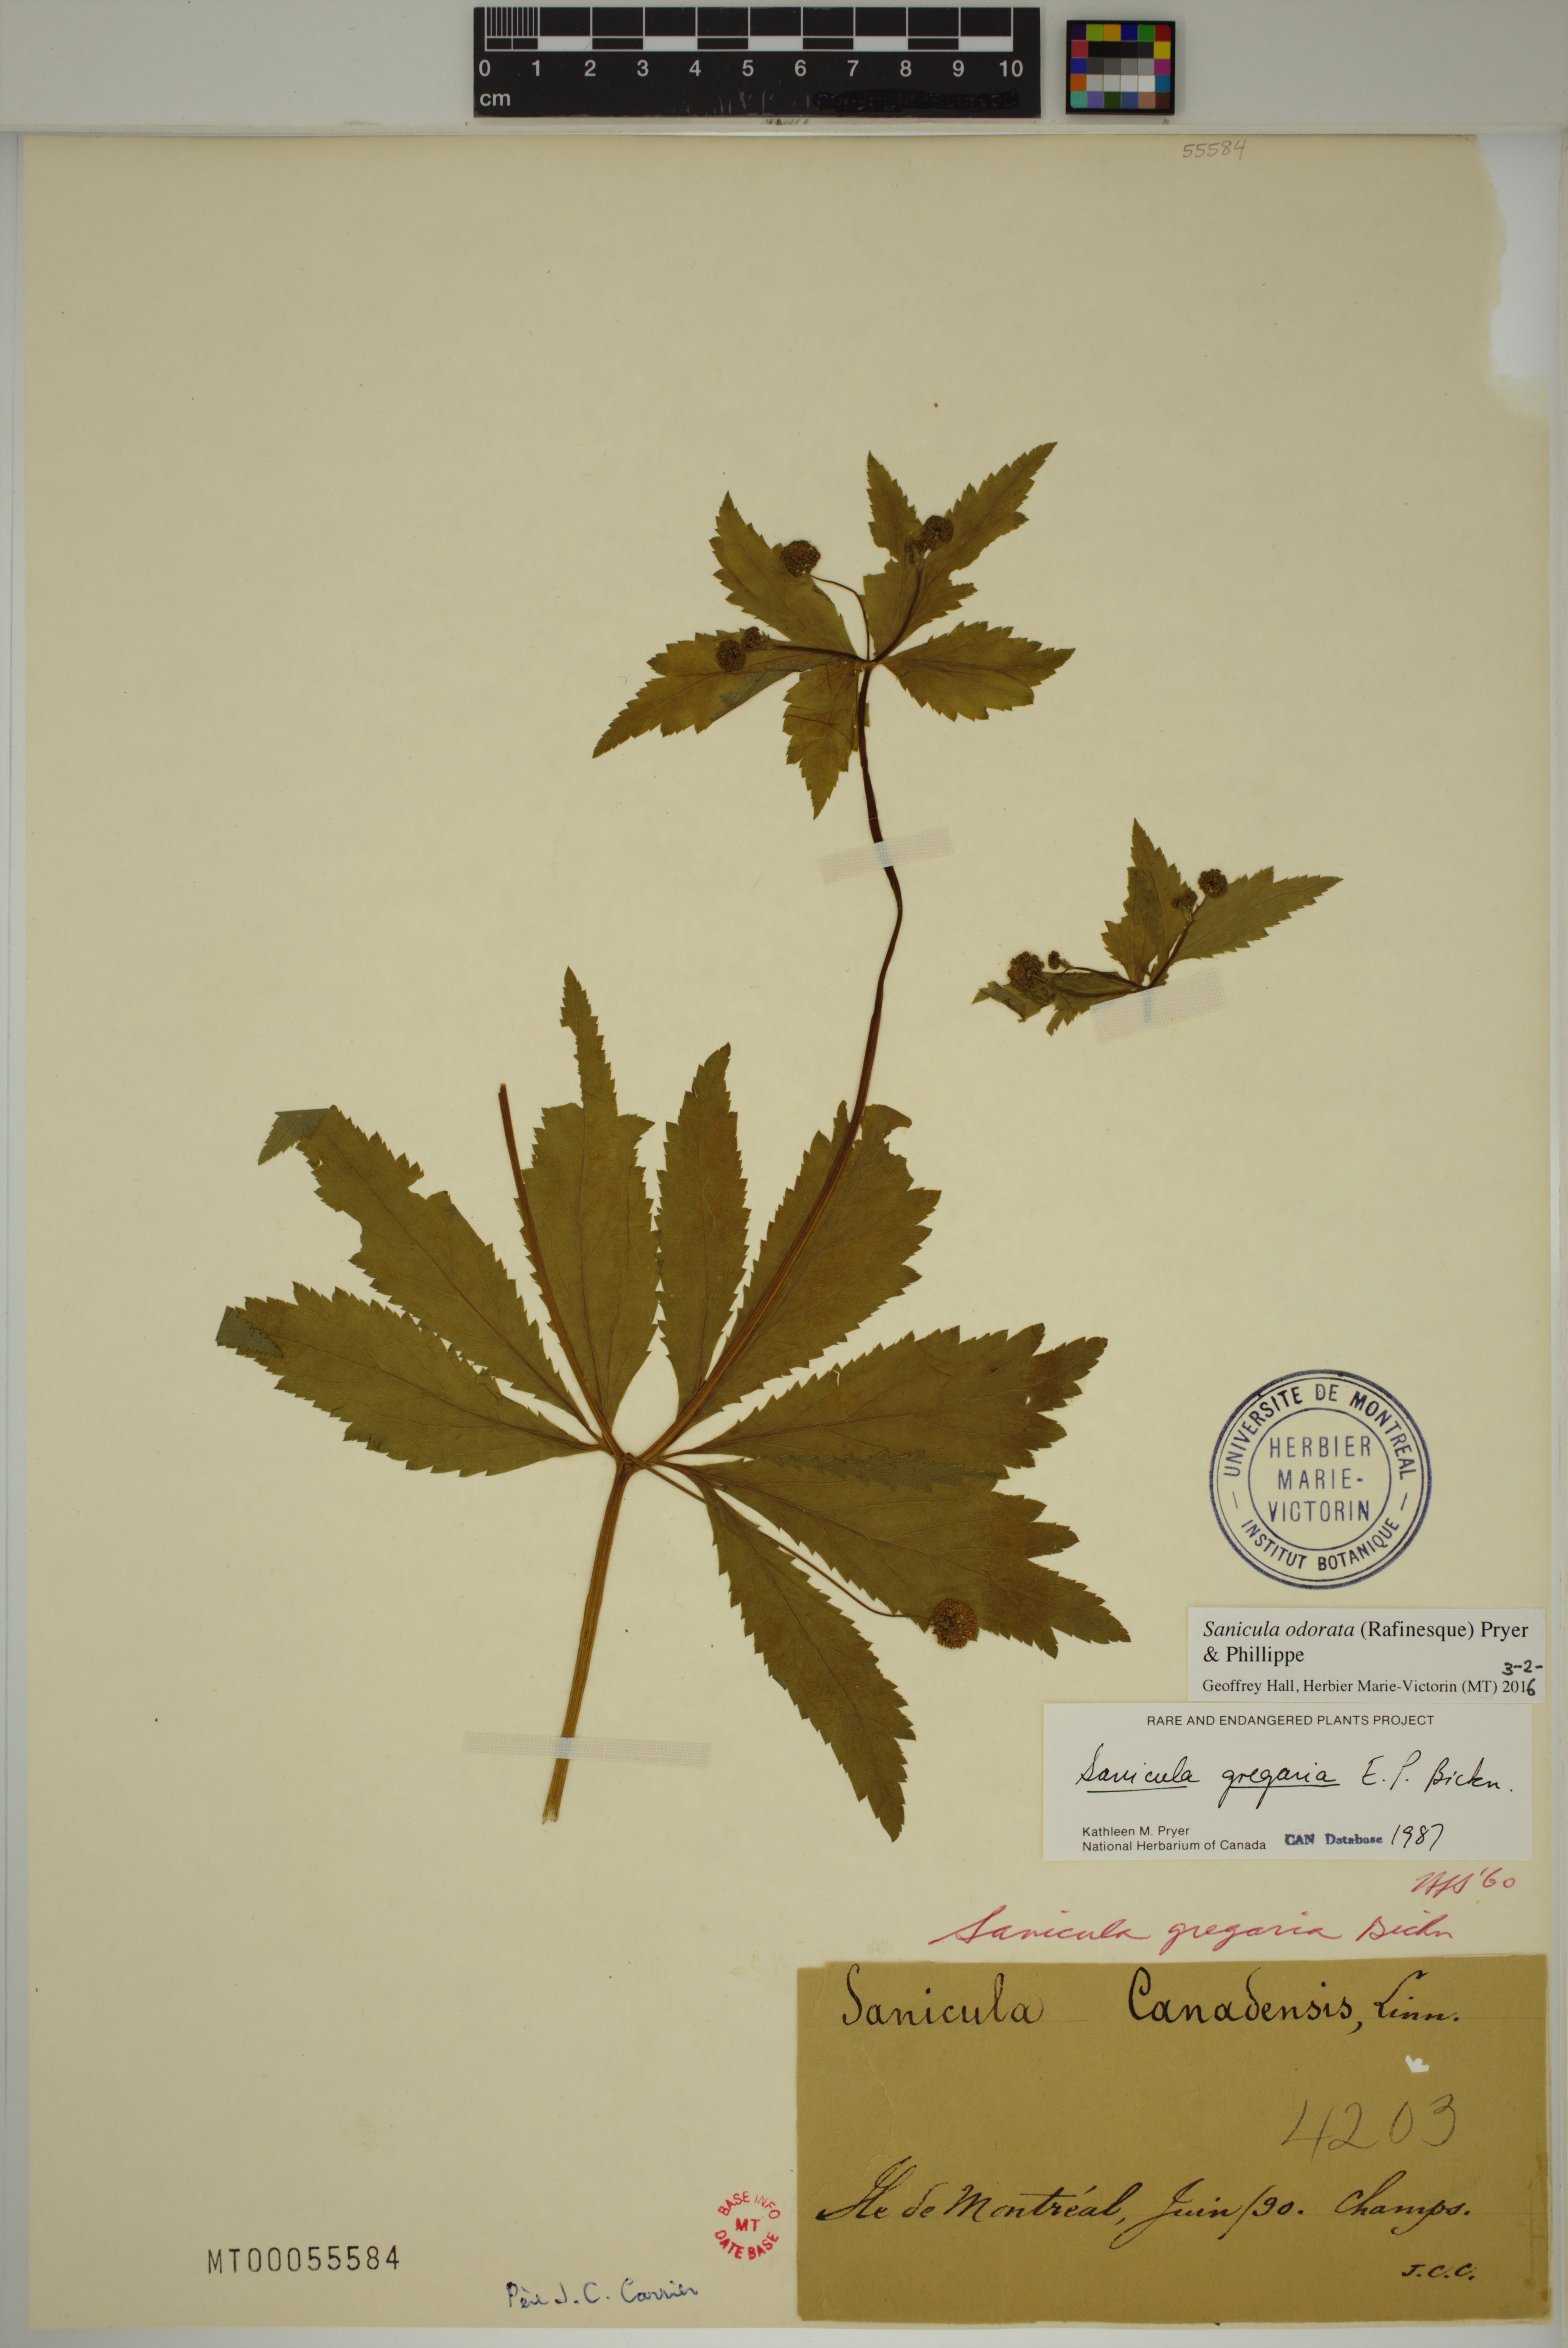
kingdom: Plantae
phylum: Tracheophyta
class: Magnoliopsida
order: Apiales
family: Apiaceae
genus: Sanicula
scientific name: Sanicula odorata
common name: Cluster sanicle
